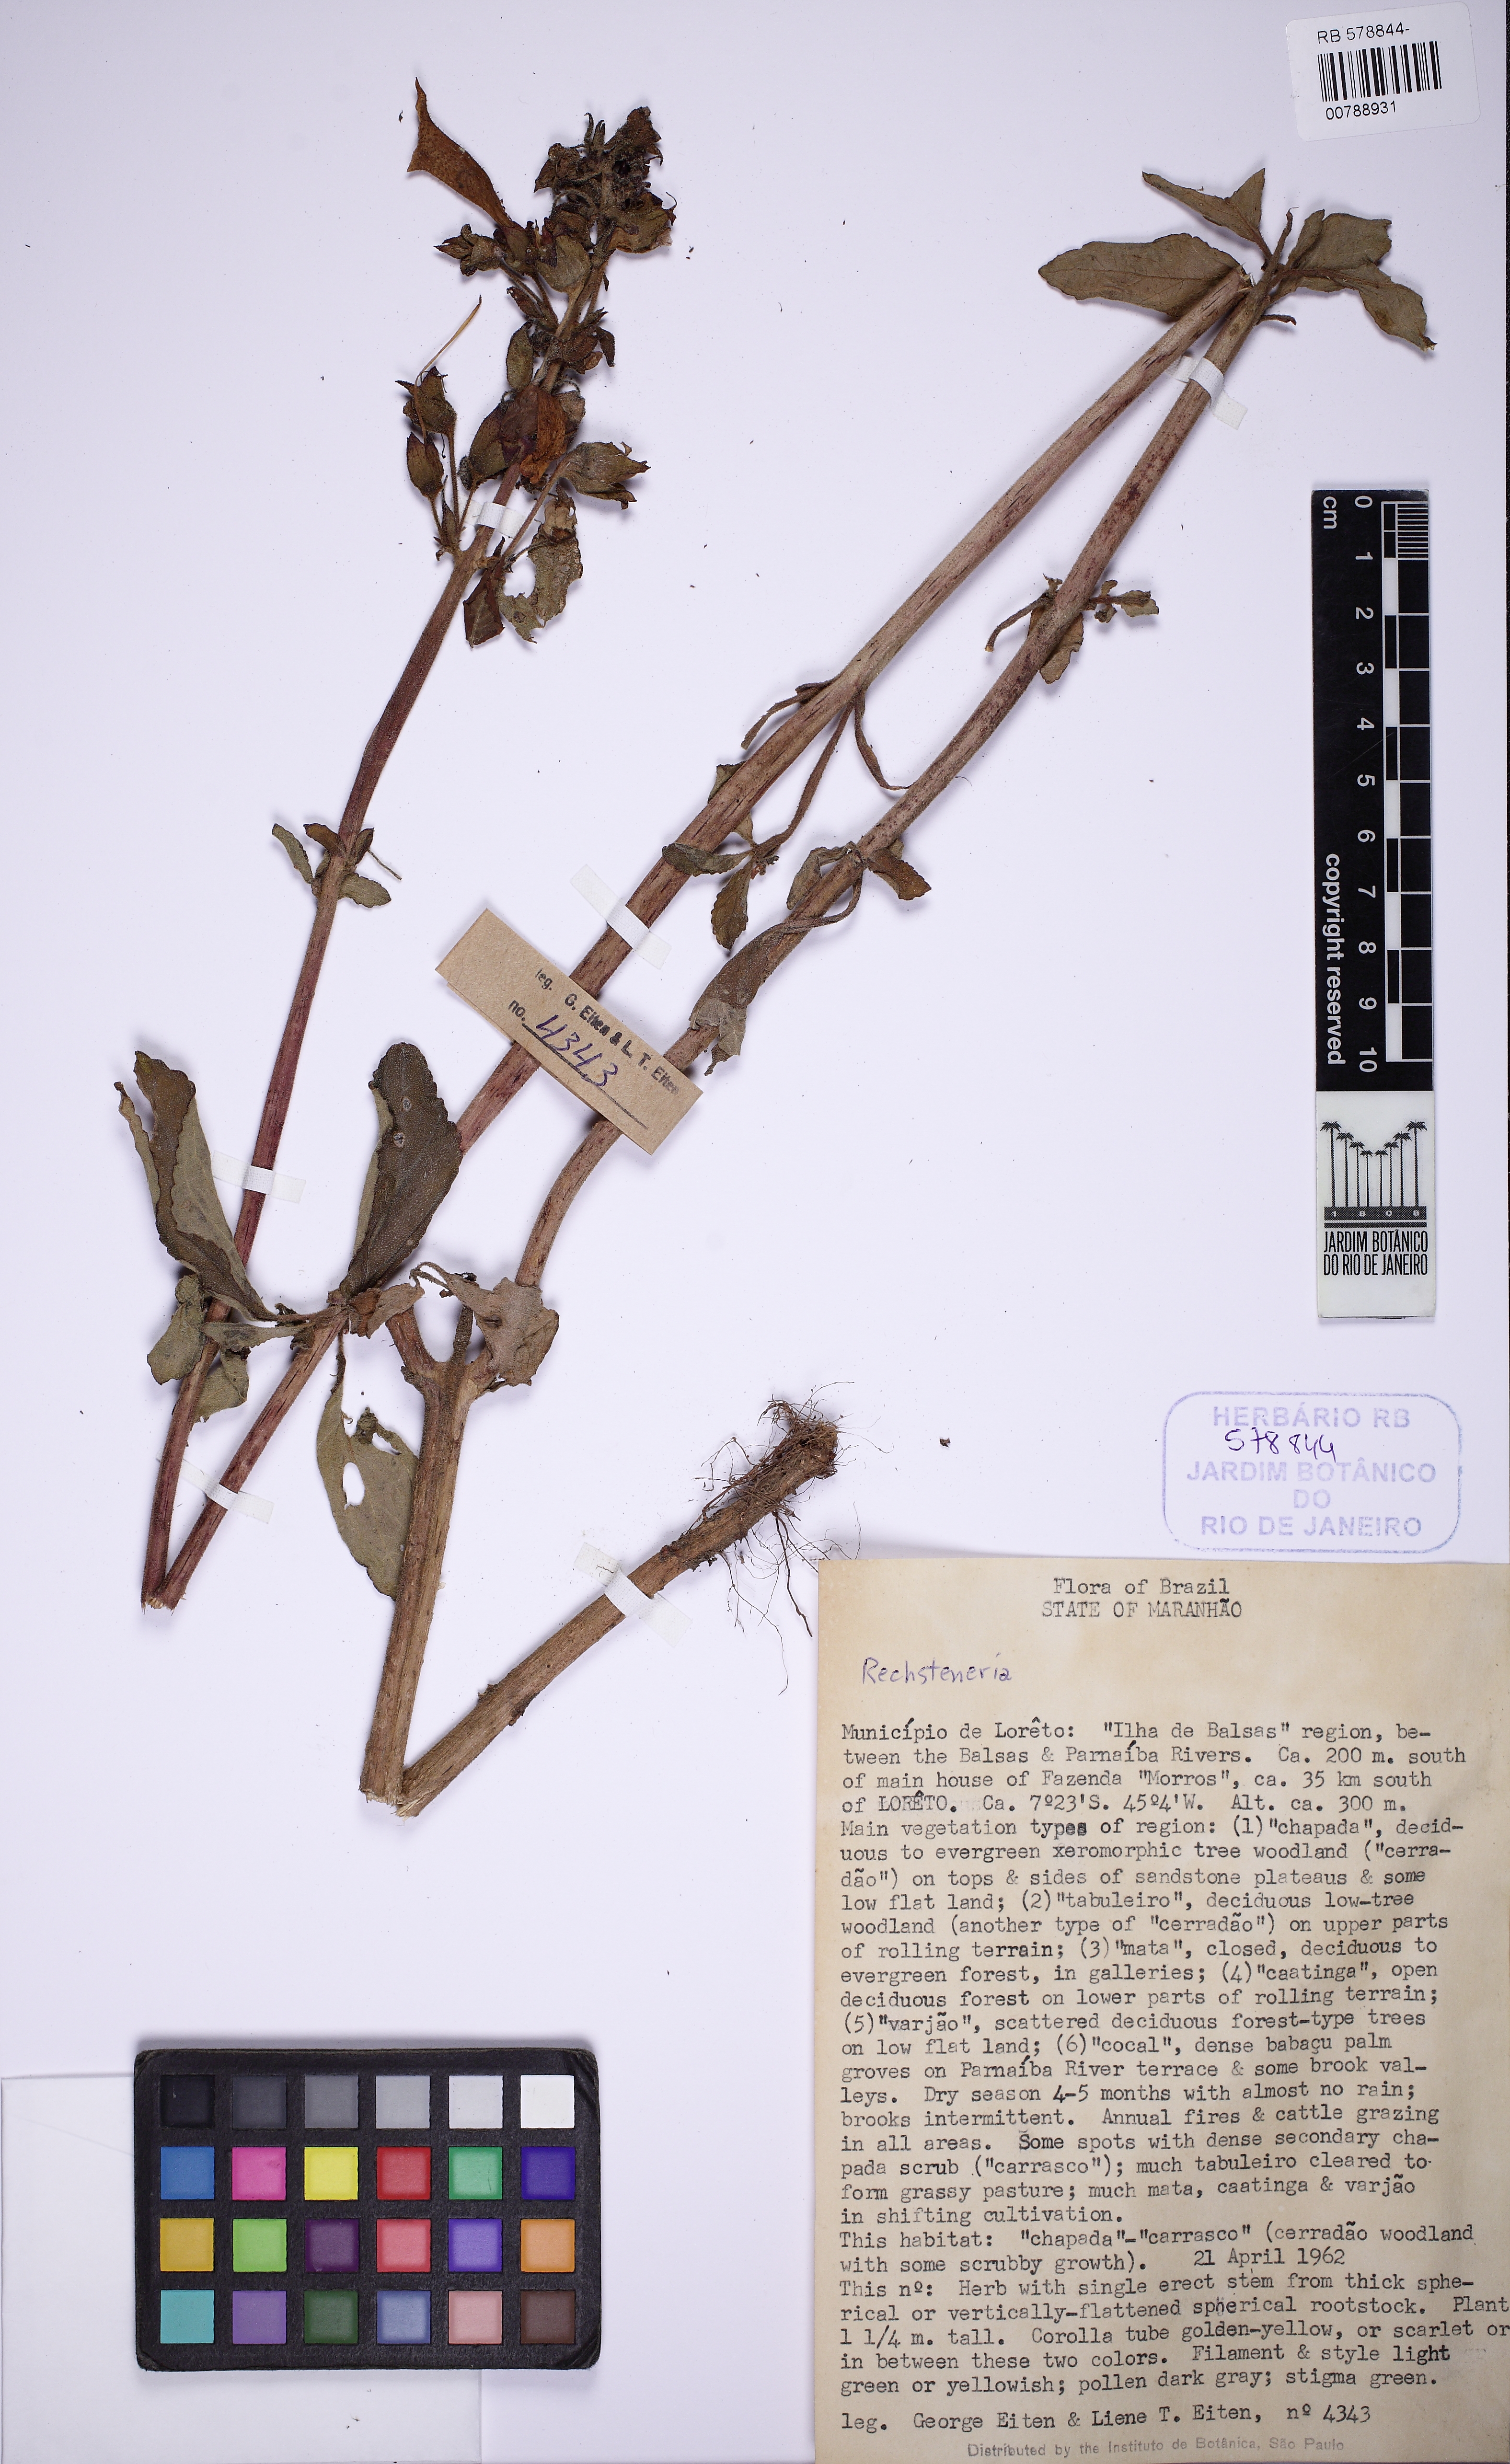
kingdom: Plantae
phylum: Tracheophyta
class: Magnoliopsida
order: Lamiales
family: Gesneriaceae
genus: Sinningia
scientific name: Sinningia
